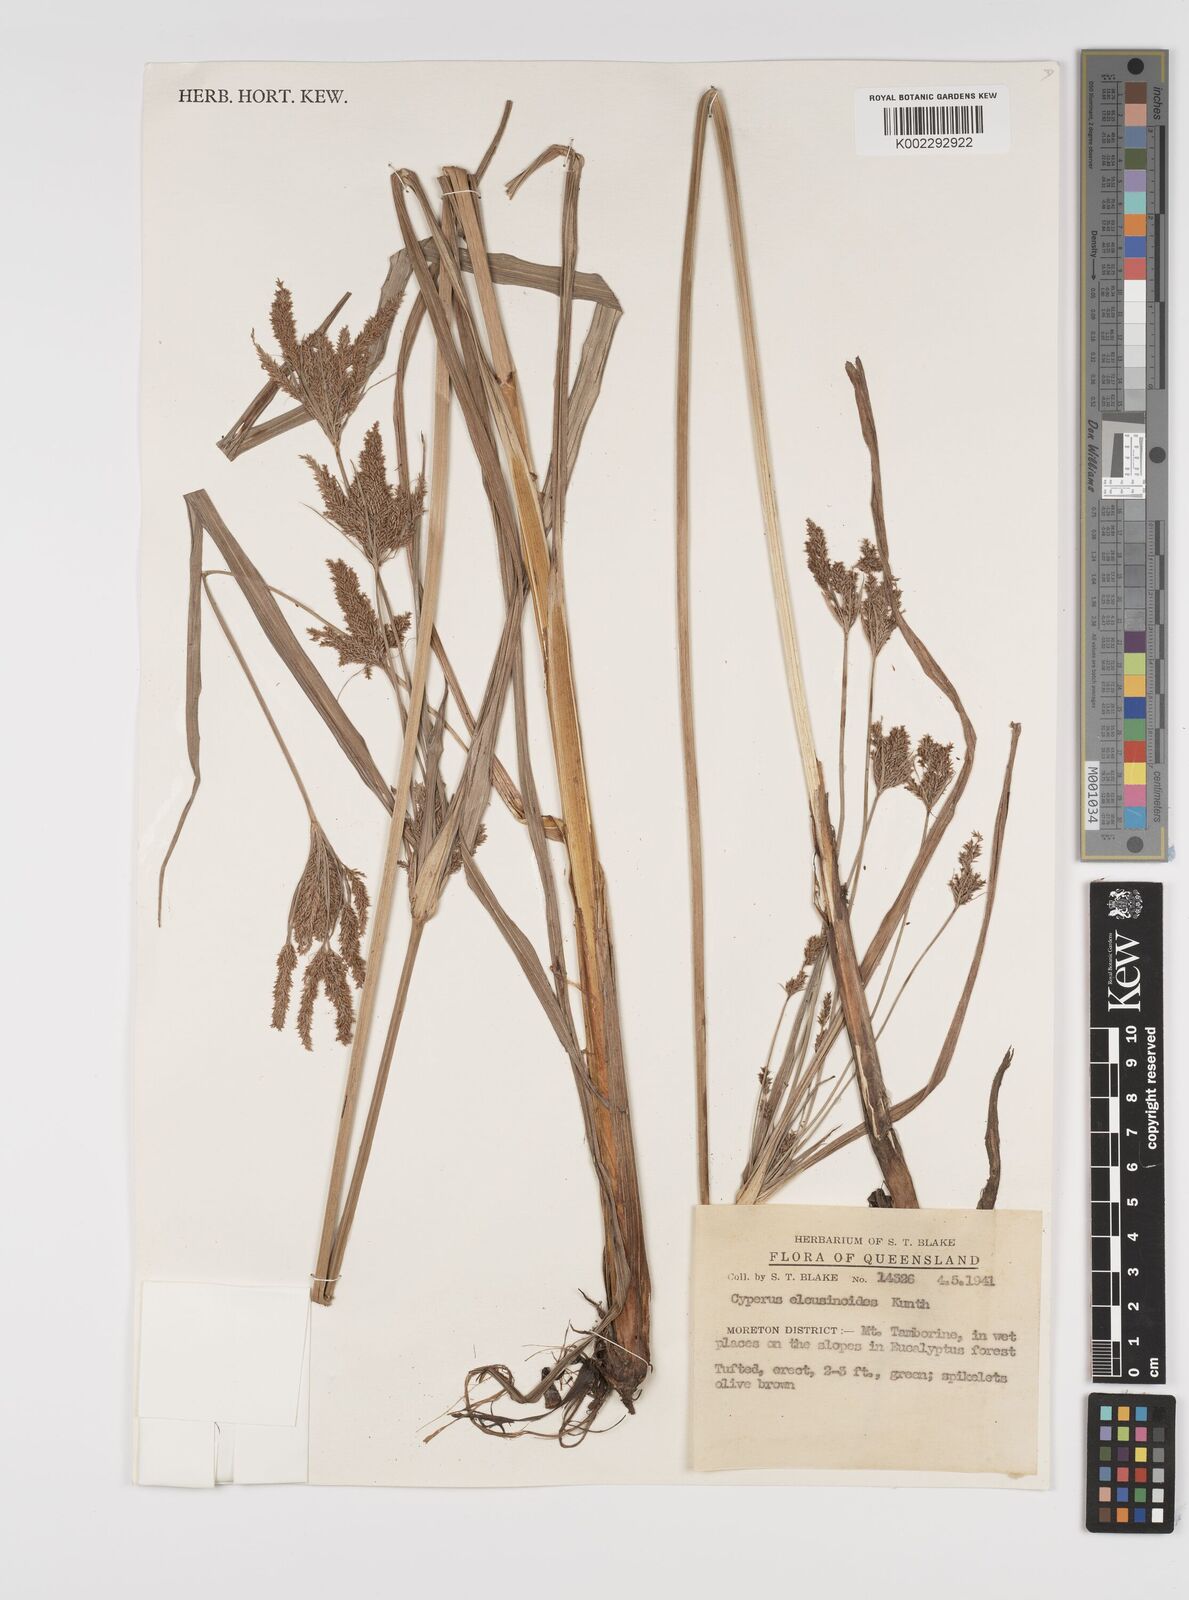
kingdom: Plantae
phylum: Tracheophyta
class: Liliopsida
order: Poales
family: Cyperaceae
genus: Cyperus
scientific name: Cyperus nutans
